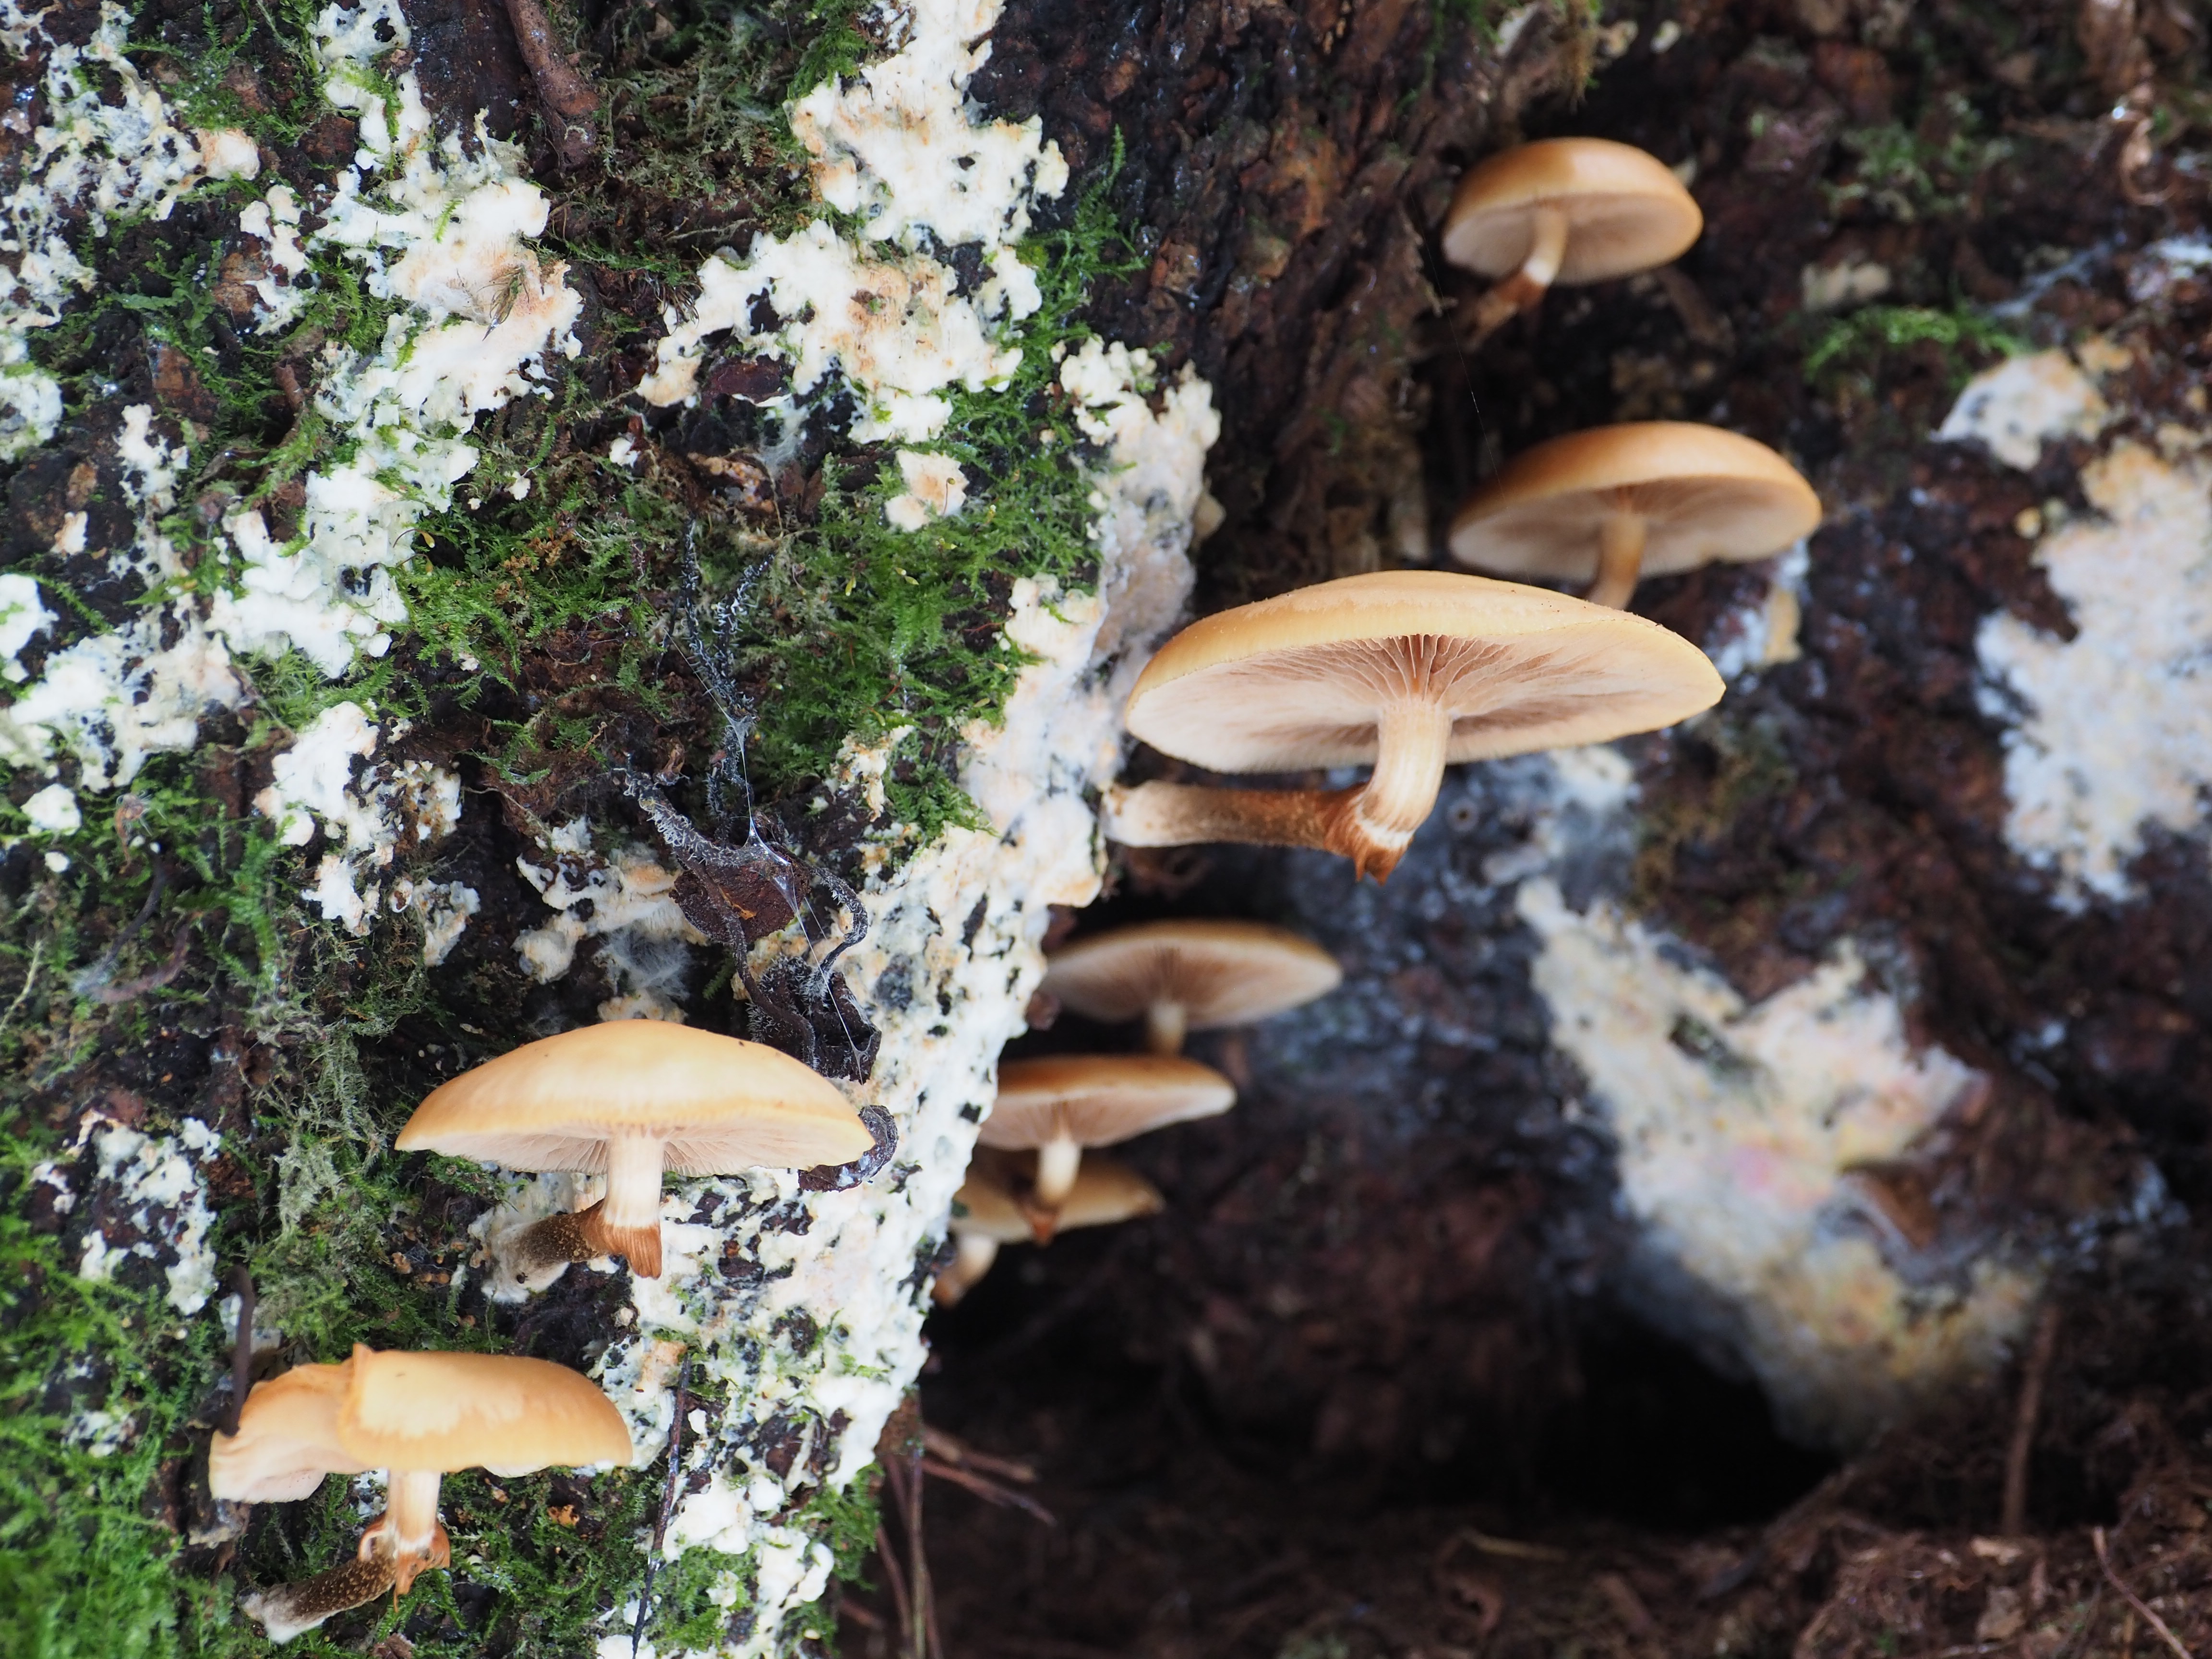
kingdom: Fungi
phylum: Basidiomycota
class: Agaricomycetes
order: Agaricales
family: Strophariaceae
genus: Kuehneromyces
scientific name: Kuehneromyces mutabilis
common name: Sheathed woodtuft
